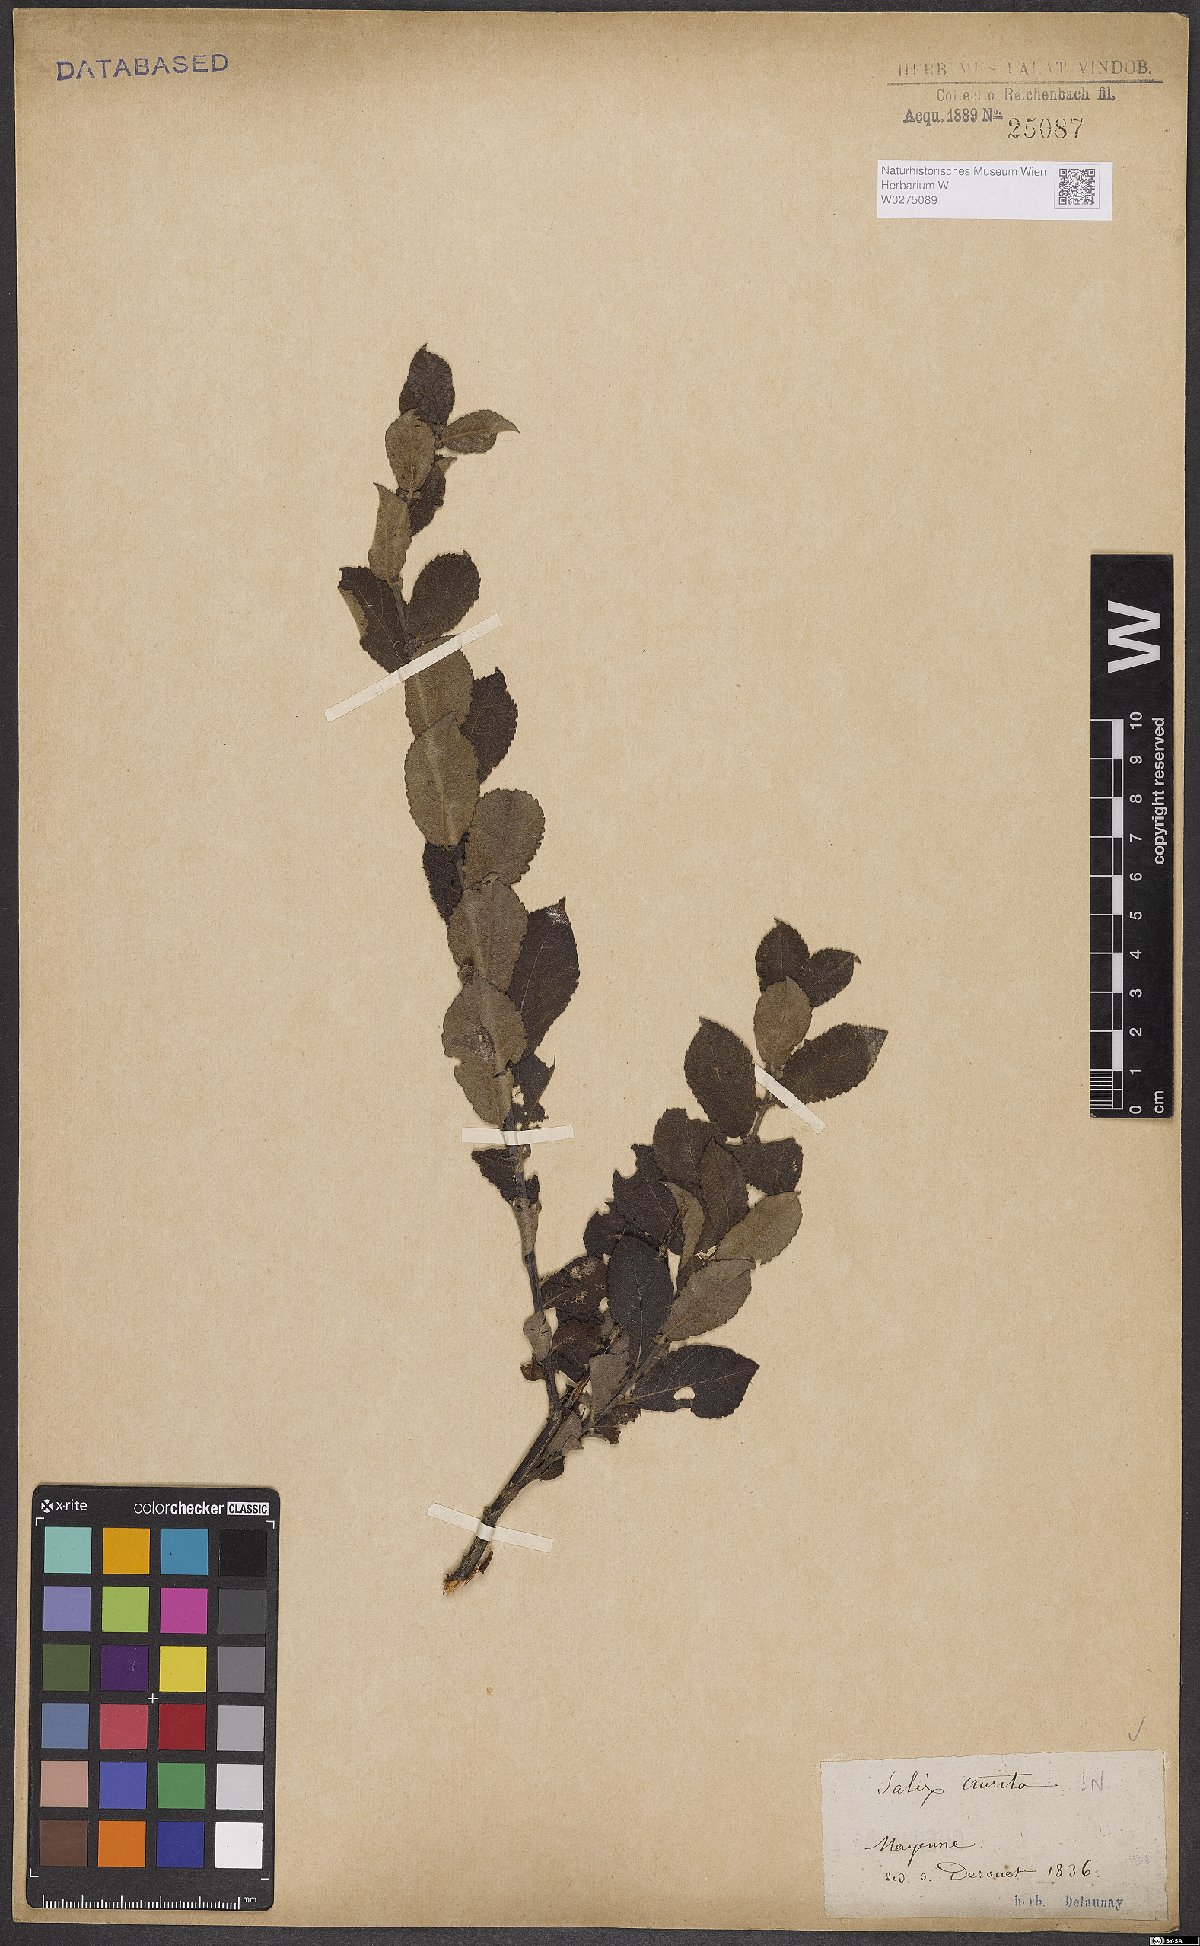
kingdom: Plantae
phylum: Tracheophyta
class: Magnoliopsida
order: Malpighiales
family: Salicaceae
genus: Salix
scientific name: Salix aurita
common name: Eared willow
